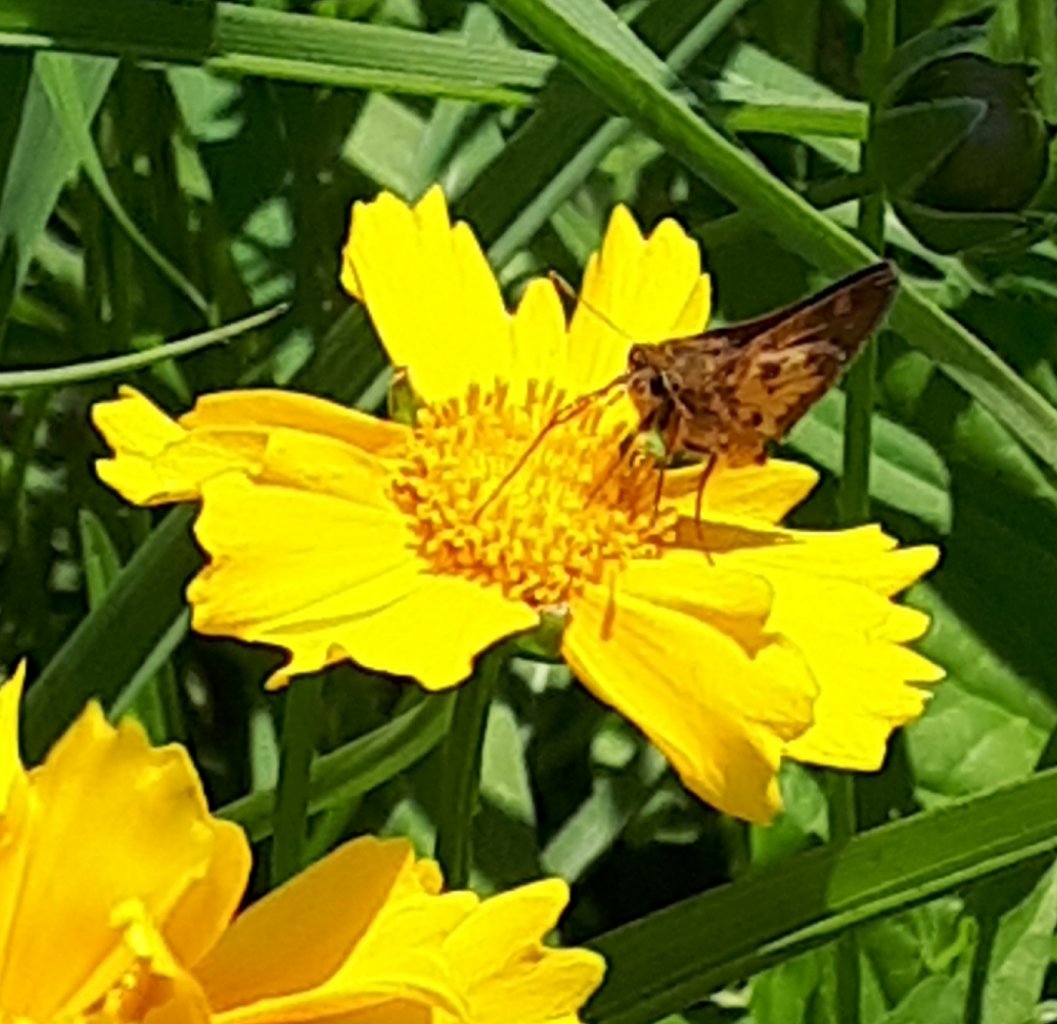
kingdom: Animalia
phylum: Arthropoda
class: Insecta
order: Lepidoptera
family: Hesperiidae
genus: Polites
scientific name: Polites coras
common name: Peck's Skipper
